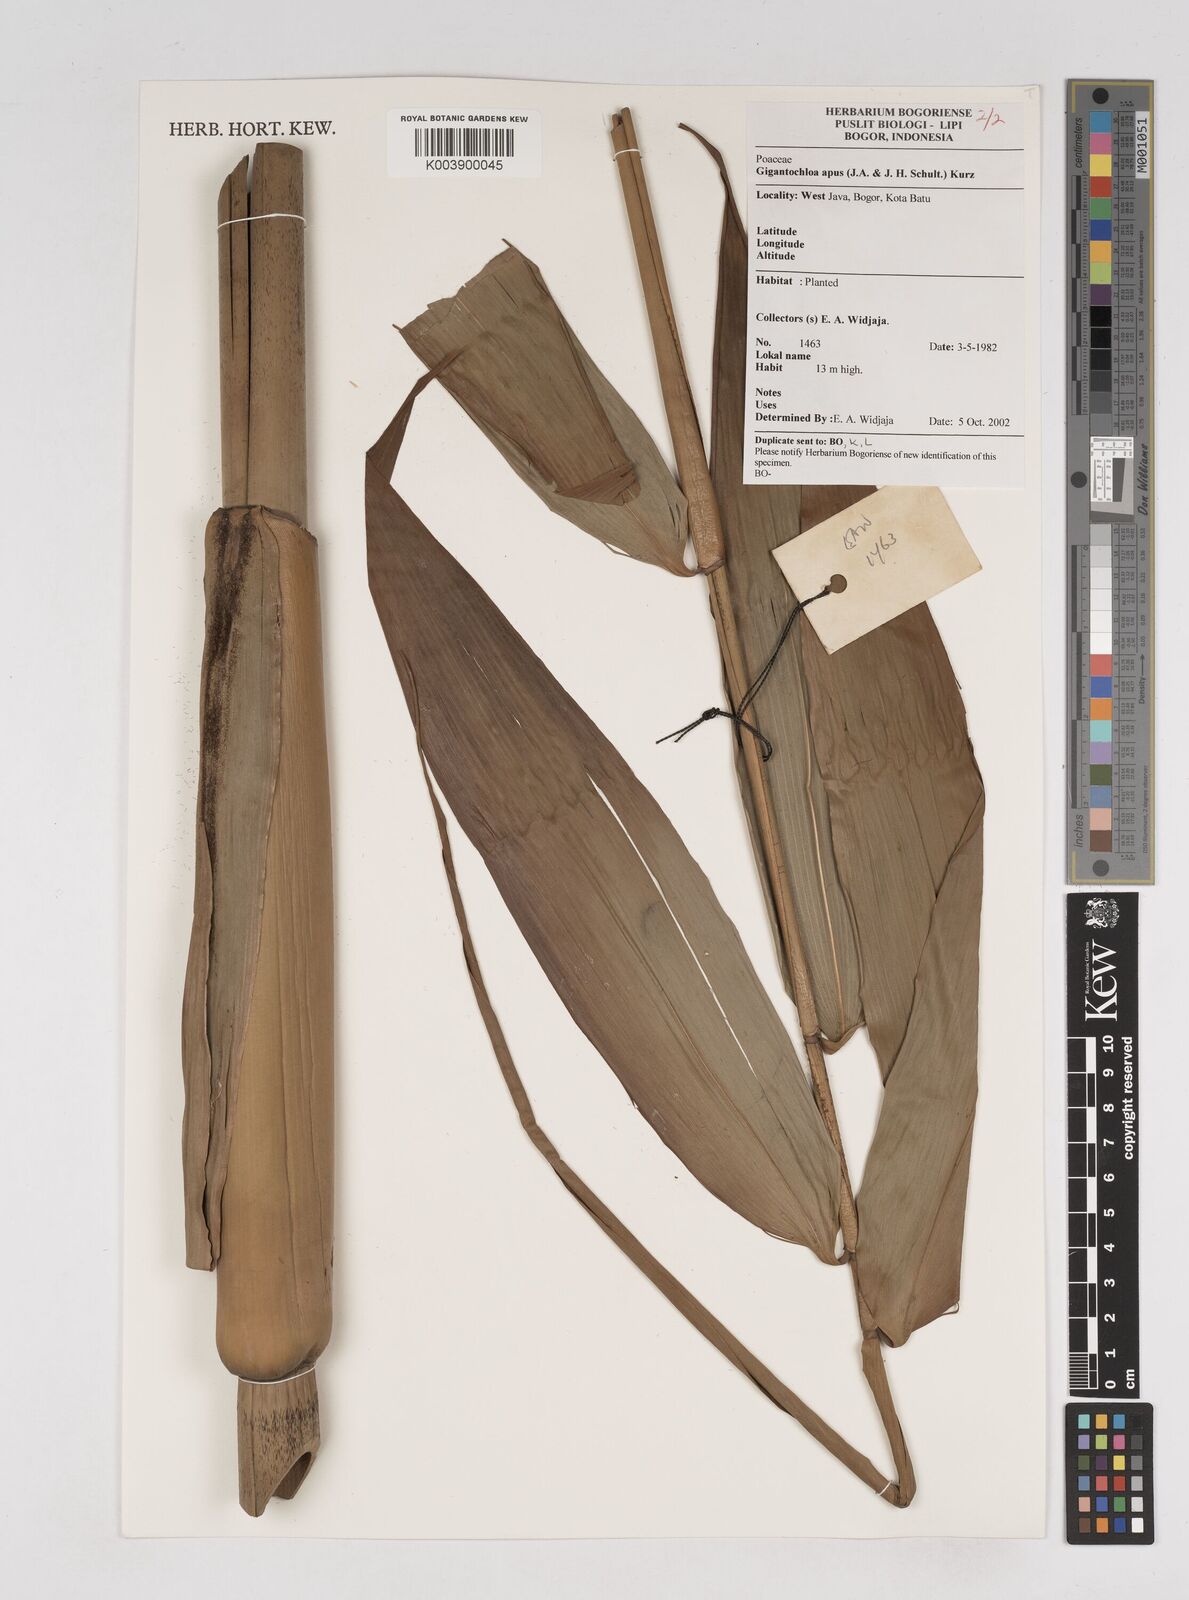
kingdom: Plantae
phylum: Tracheophyta
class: Liliopsida
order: Poales
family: Poaceae
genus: Gigantochloa
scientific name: Gigantochloa apus
